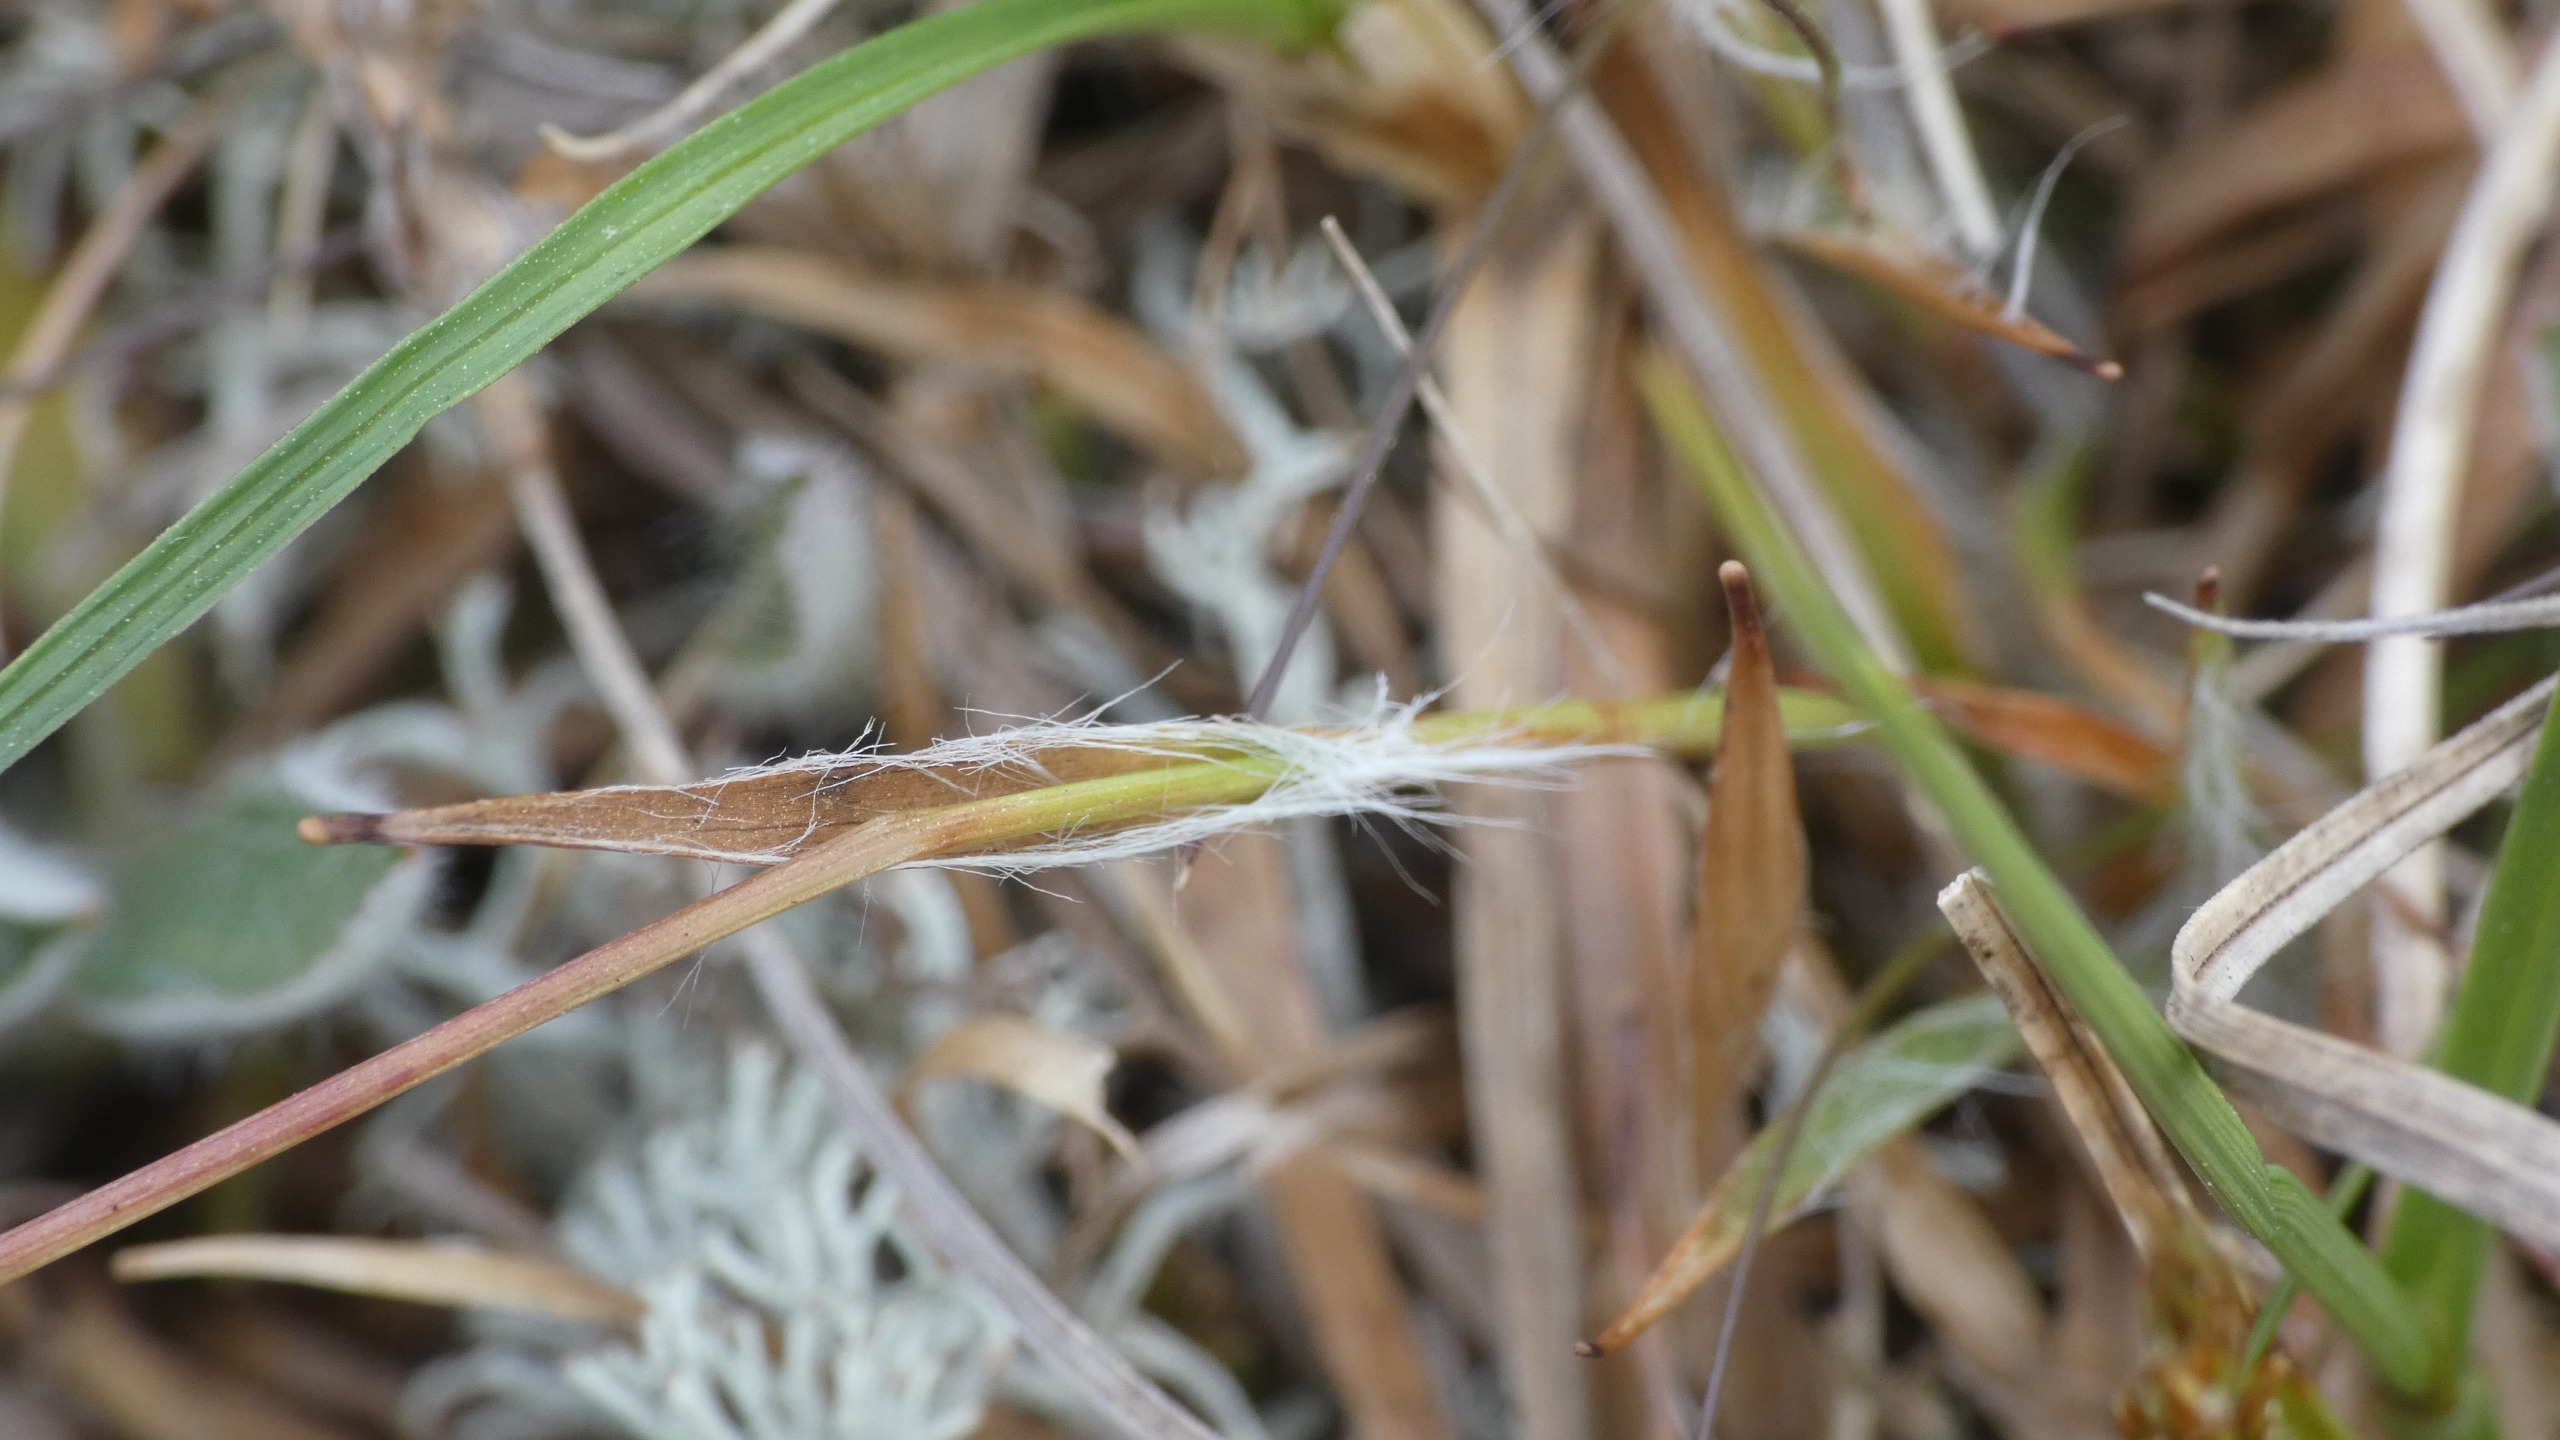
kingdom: Plantae
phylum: Tracheophyta
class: Liliopsida
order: Poales
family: Juncaceae
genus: Luzula
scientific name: Luzula campestris
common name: Mark-frytle
